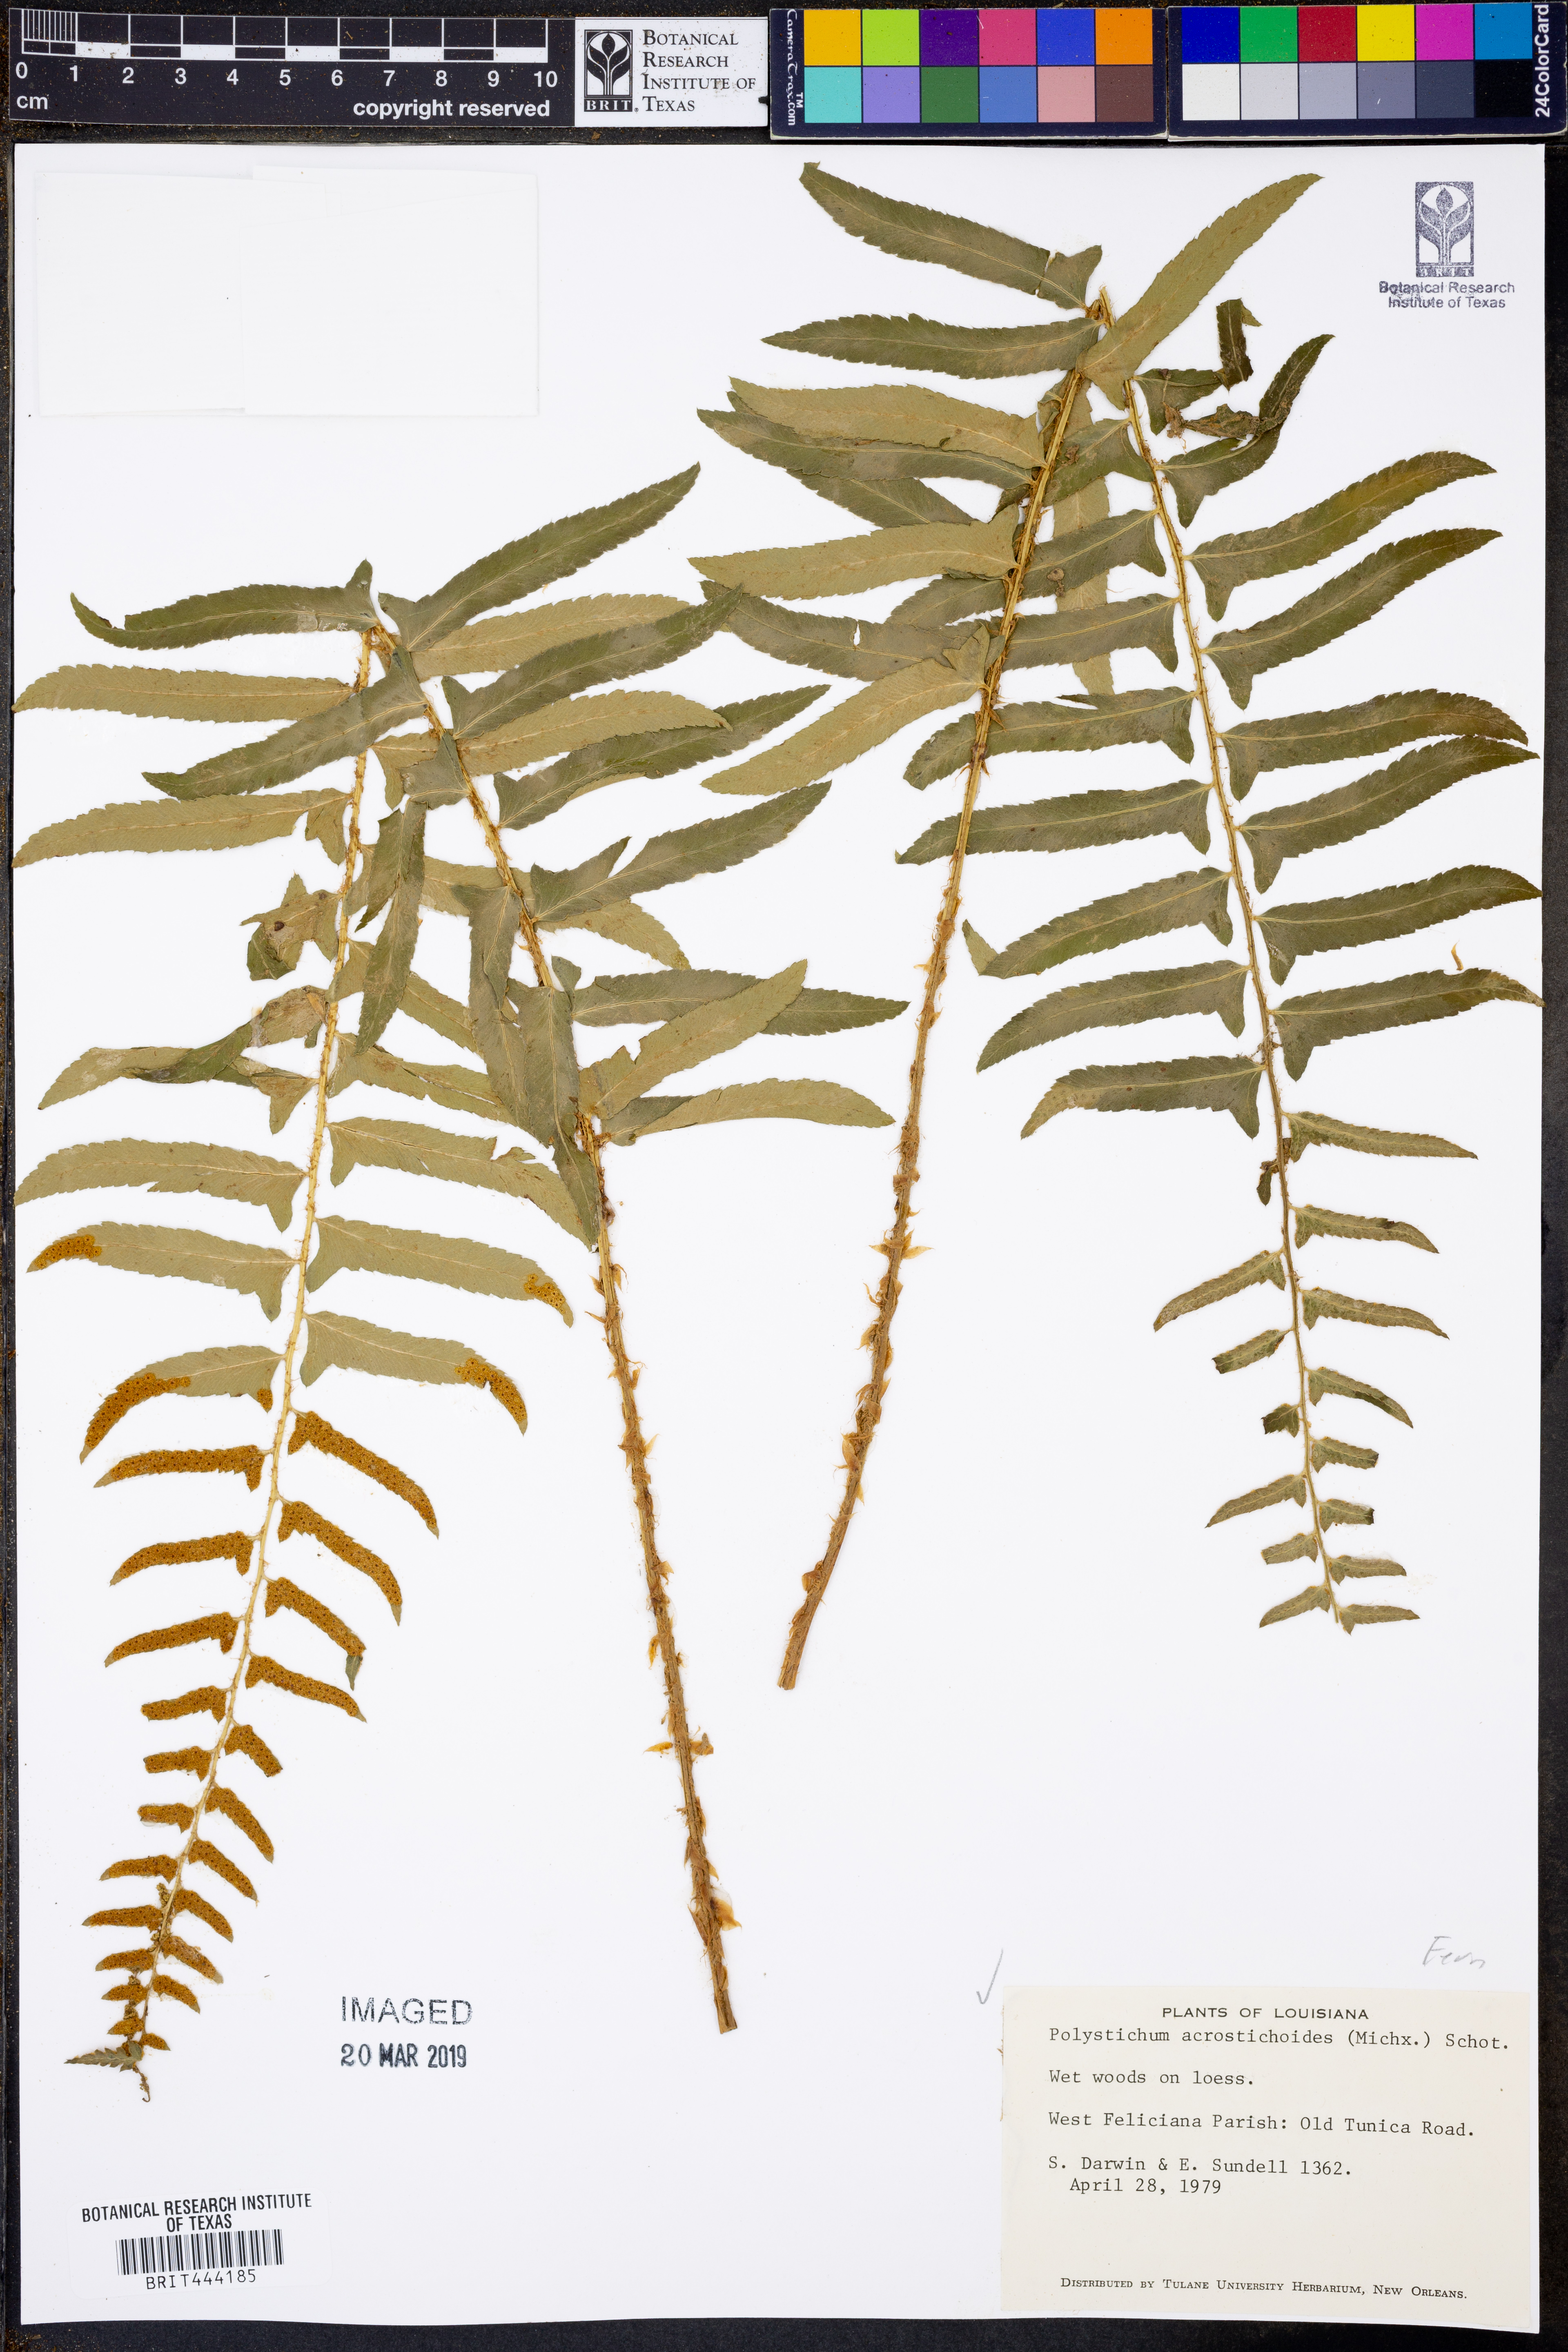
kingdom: Plantae
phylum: Tracheophyta
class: Polypodiopsida
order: Polypodiales
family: Dryopteridaceae
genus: Polystichum
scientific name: Polystichum acrostichoides
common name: Christmas fern
